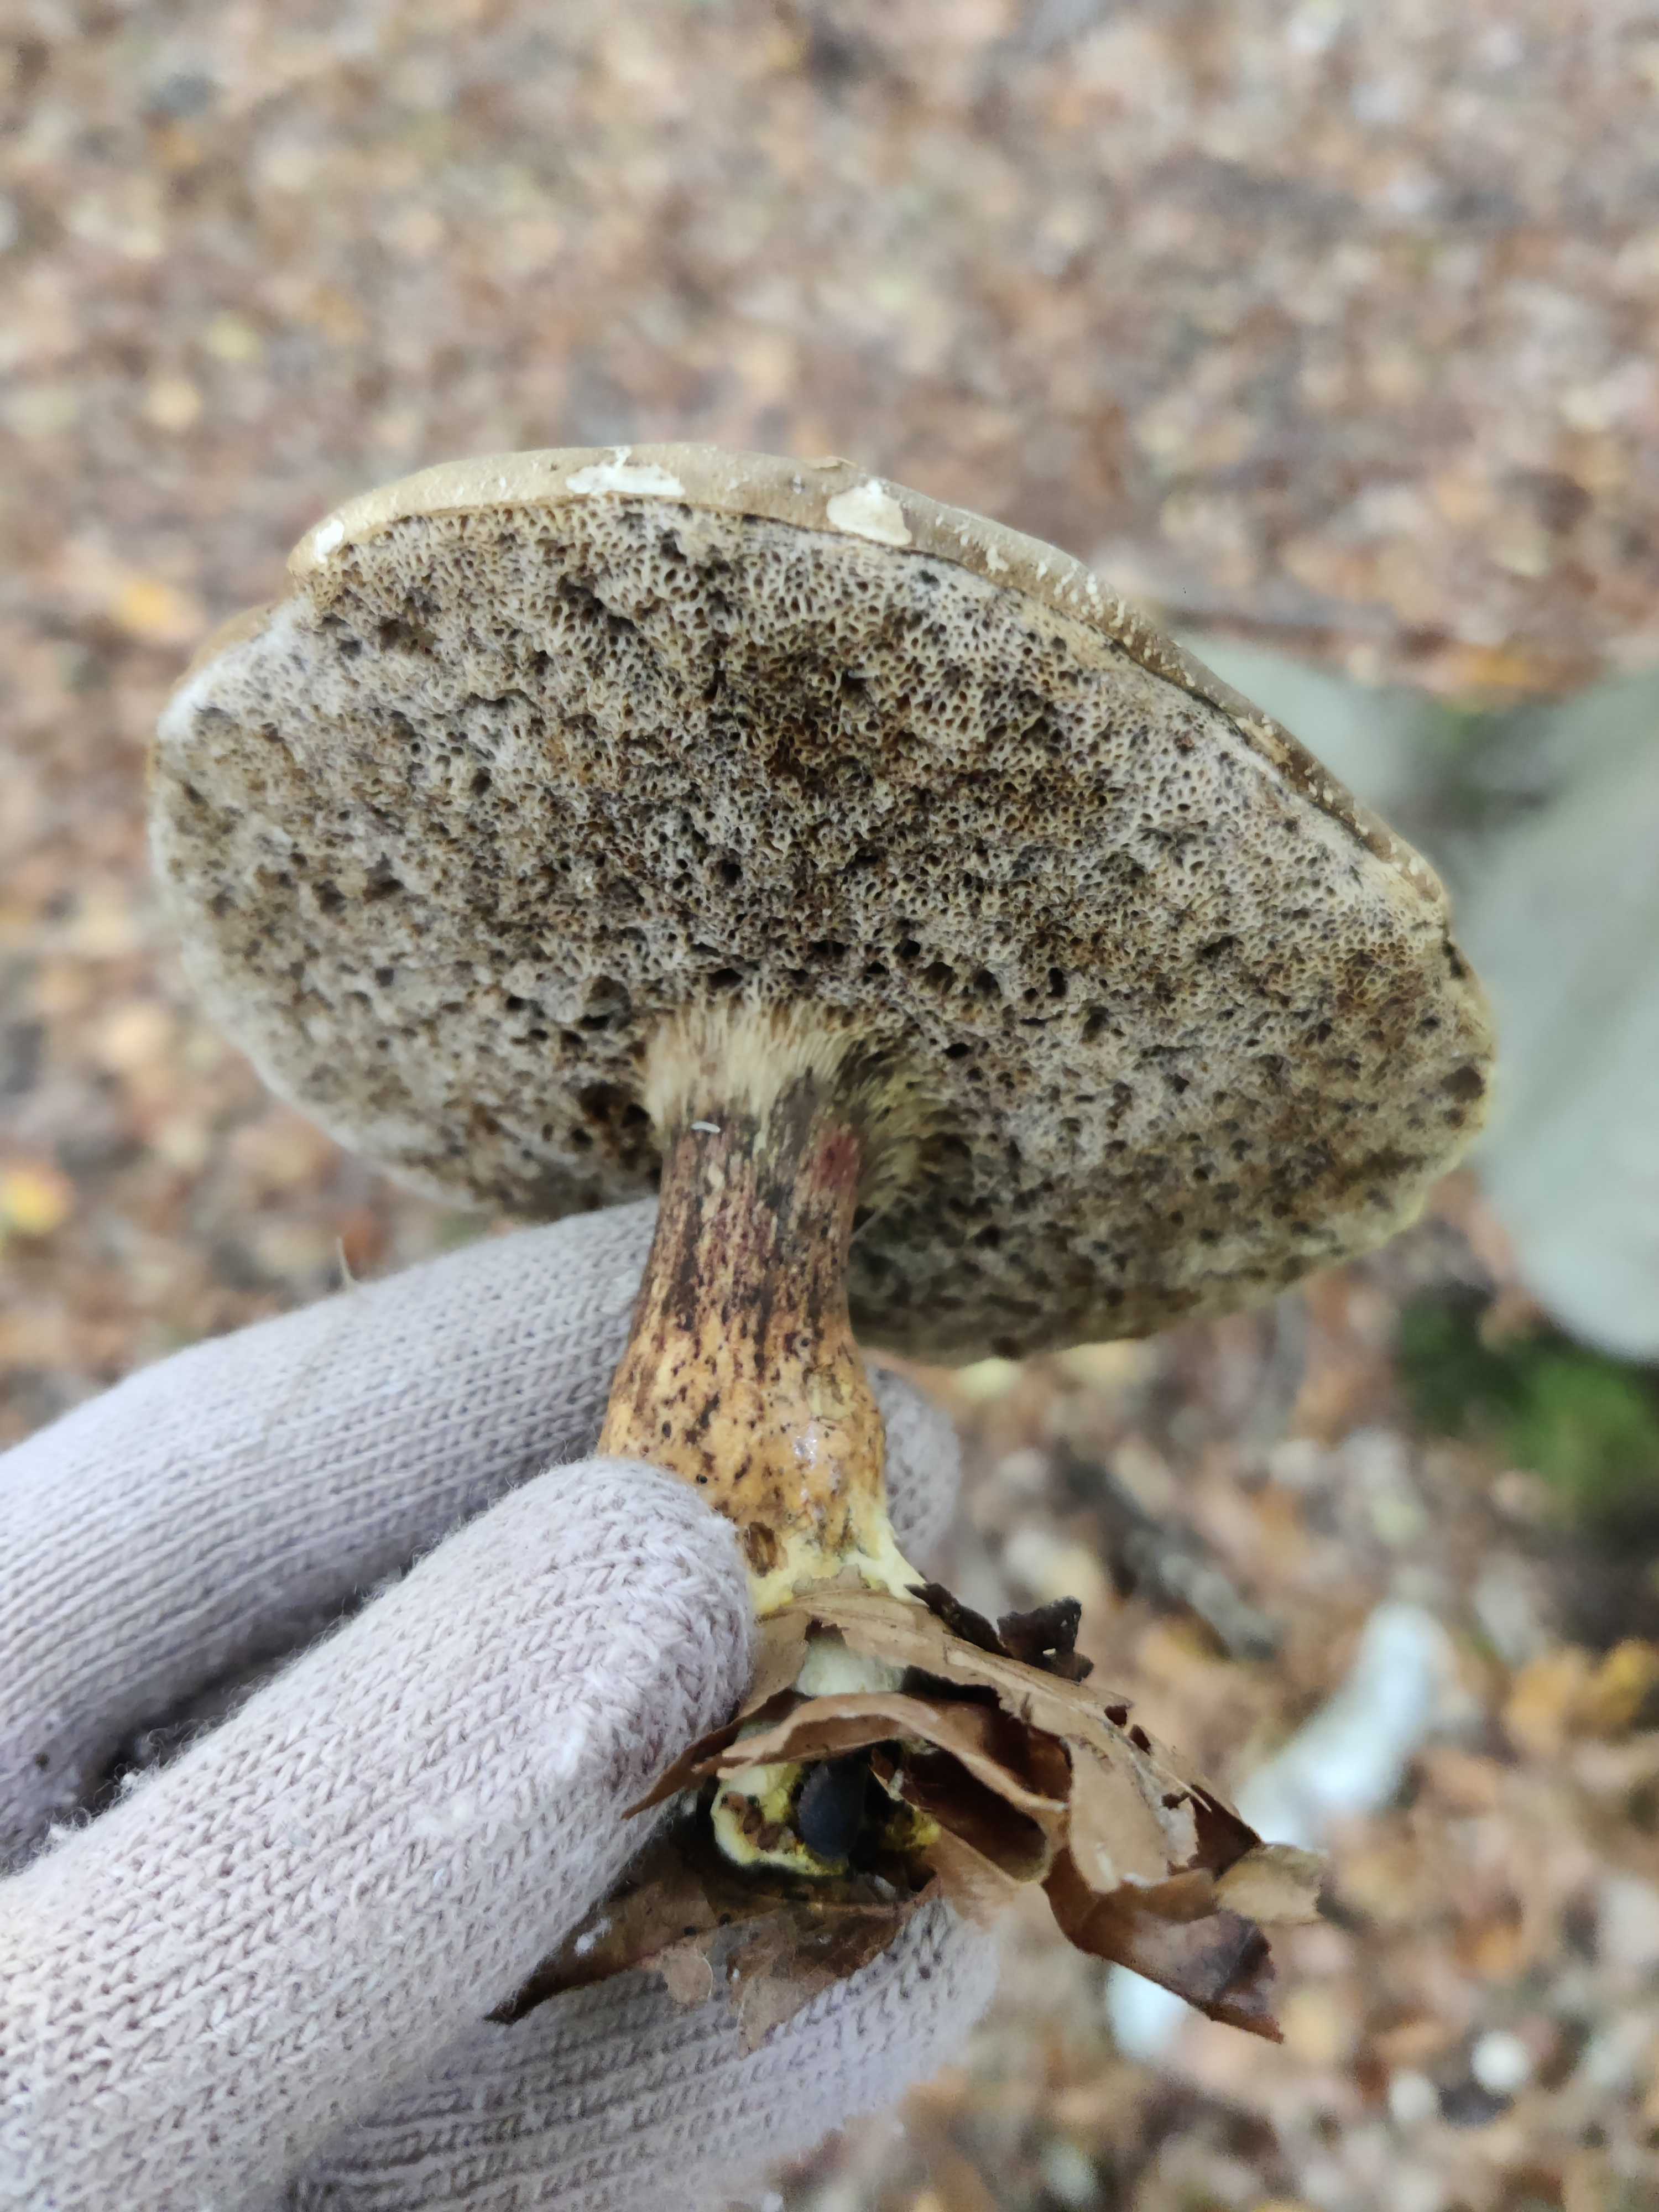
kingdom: Fungi
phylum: Basidiomycota
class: Agaricomycetes
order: Boletales
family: Boletaceae
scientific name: Boletaceae
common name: rørhatfamilien
